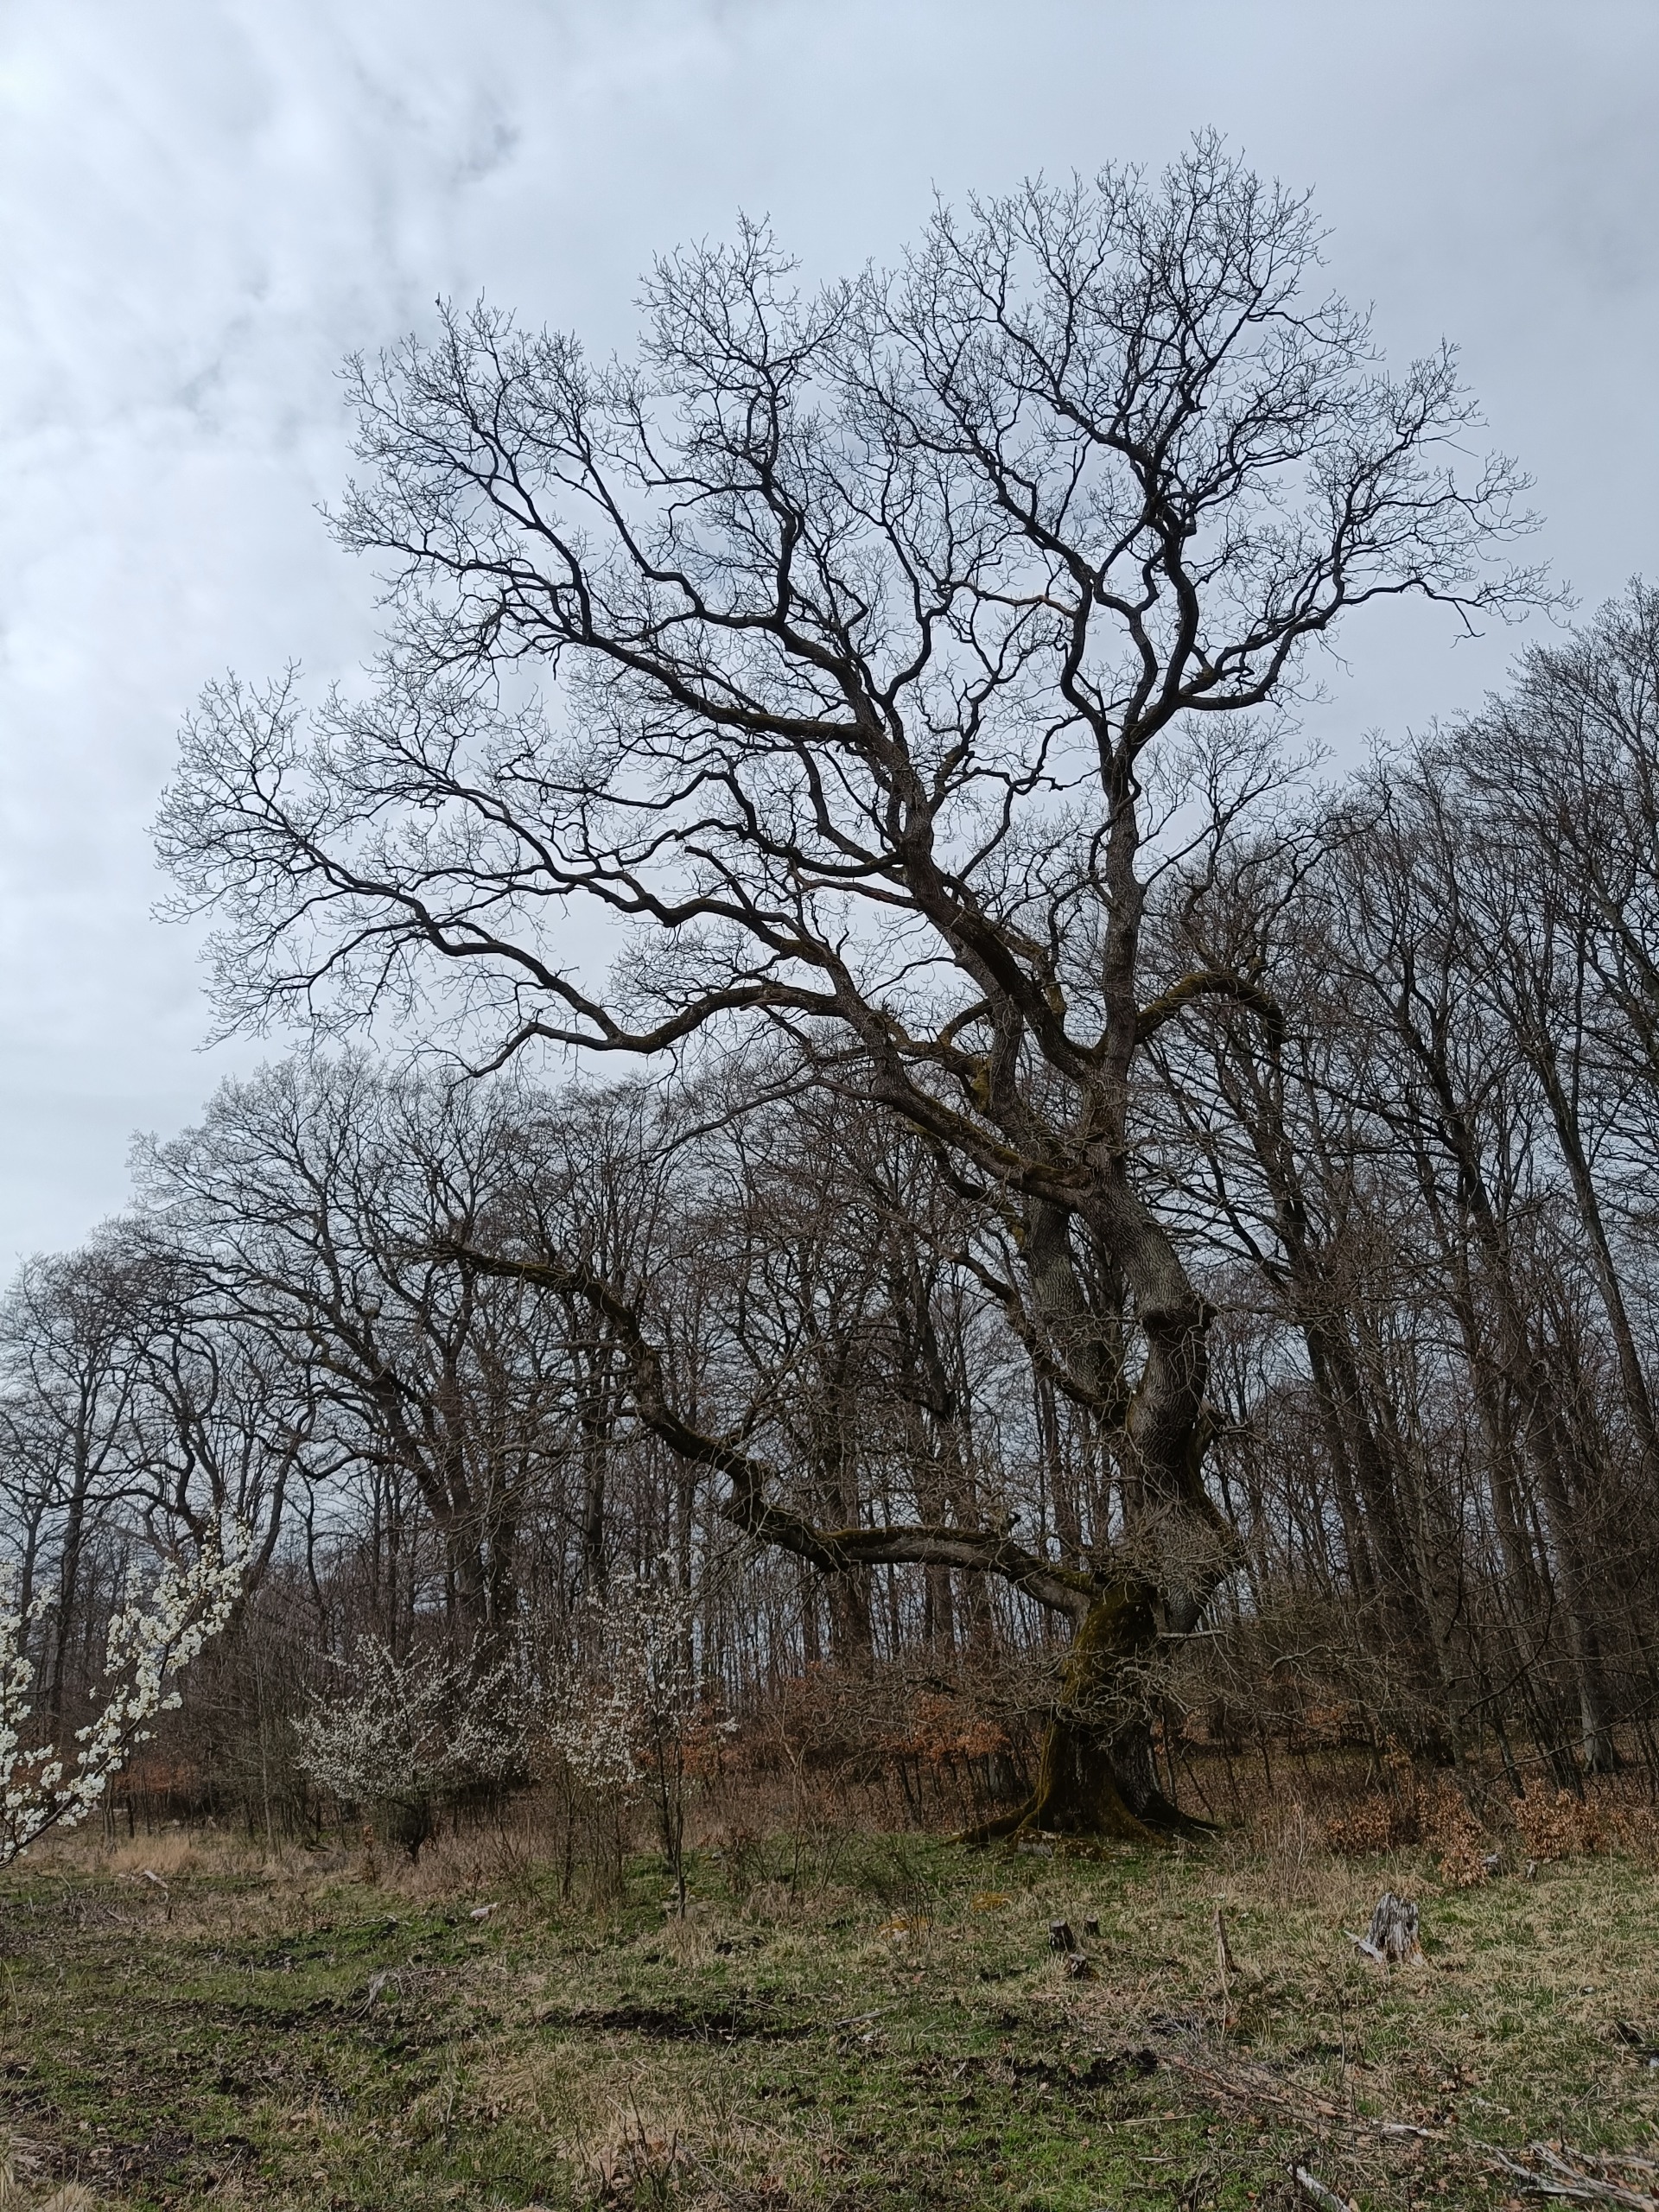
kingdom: Plantae
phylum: Tracheophyta
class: Magnoliopsida
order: Fagales
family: Fagaceae
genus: Quercus
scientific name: Quercus robur
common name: Stilk-eg/almindelig eg
